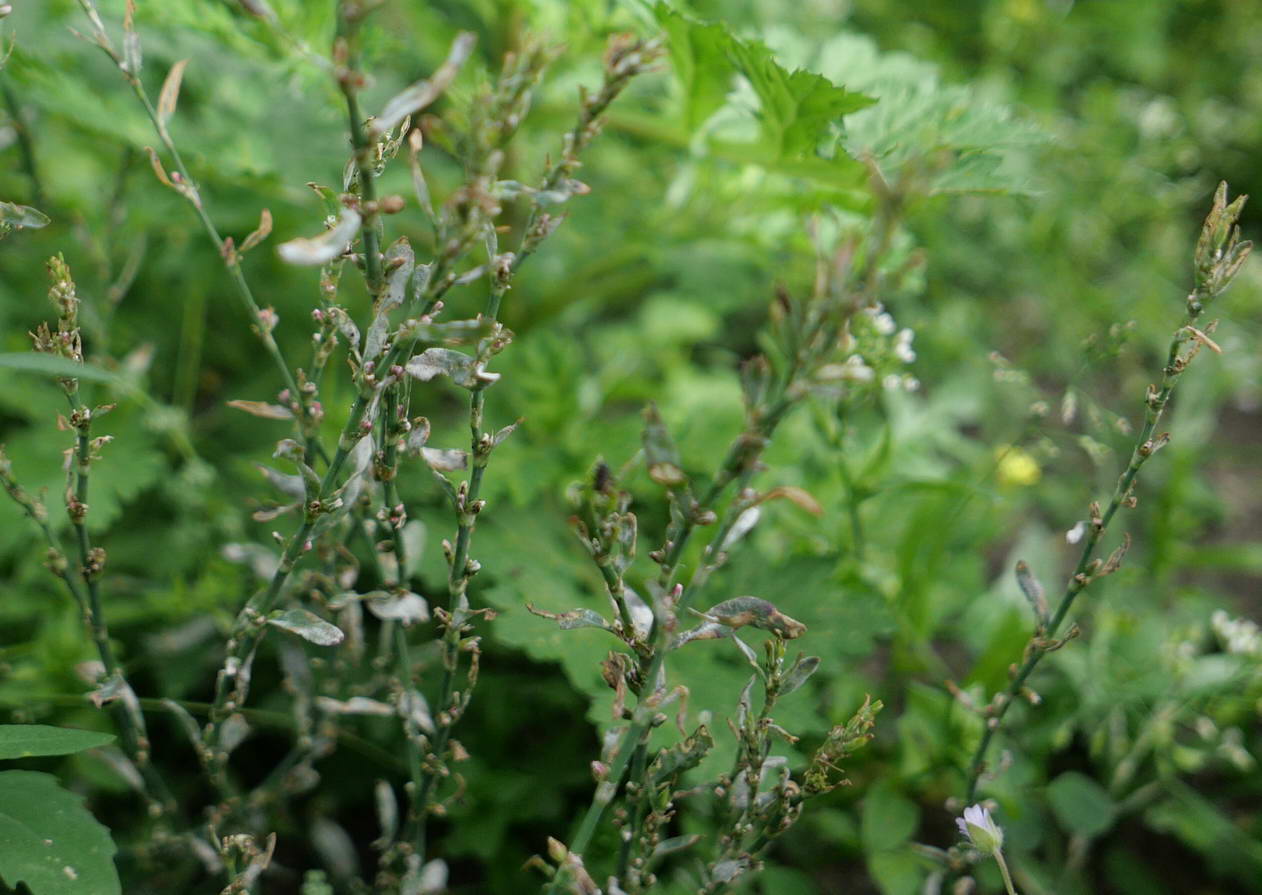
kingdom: Fungi
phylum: Ascomycota
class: Leotiomycetes
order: Helotiales
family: Erysiphaceae
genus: Erysiphe
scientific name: Erysiphe polygoni
